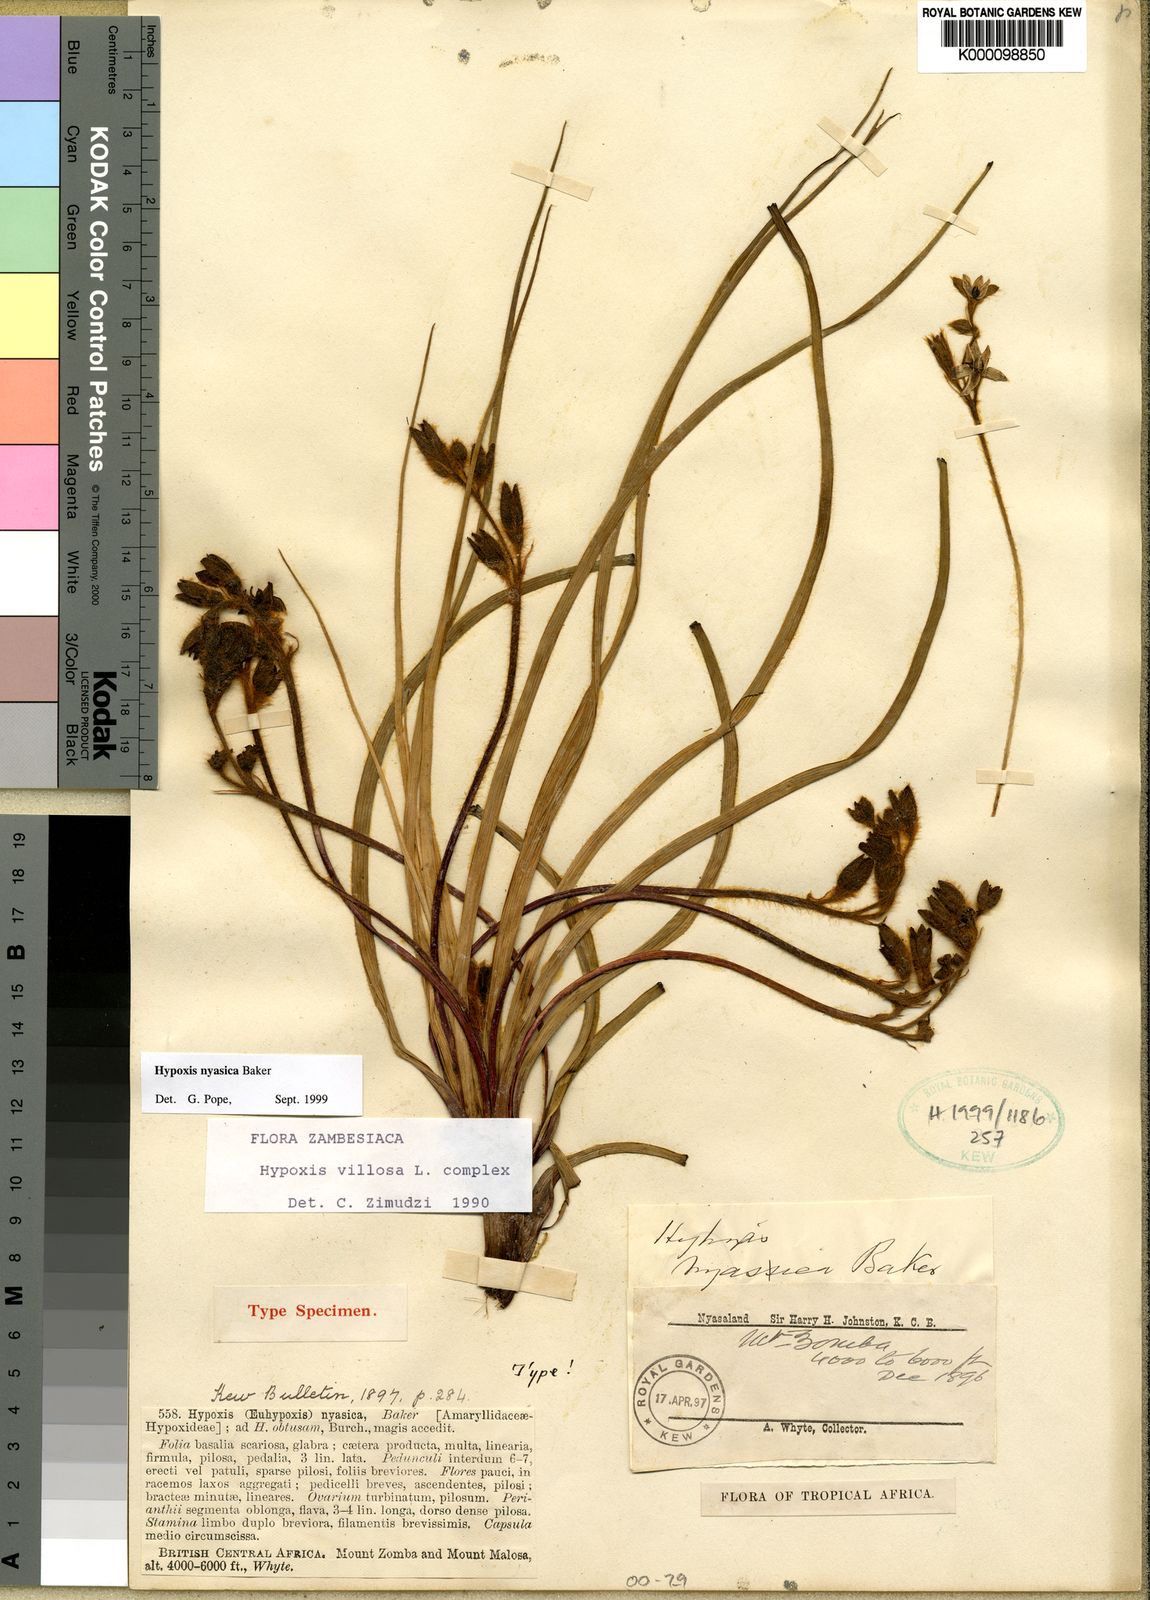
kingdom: Plantae
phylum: Tracheophyta
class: Liliopsida
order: Asparagales
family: Hypoxidaceae
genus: Hypoxis
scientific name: Hypoxis nyasica
